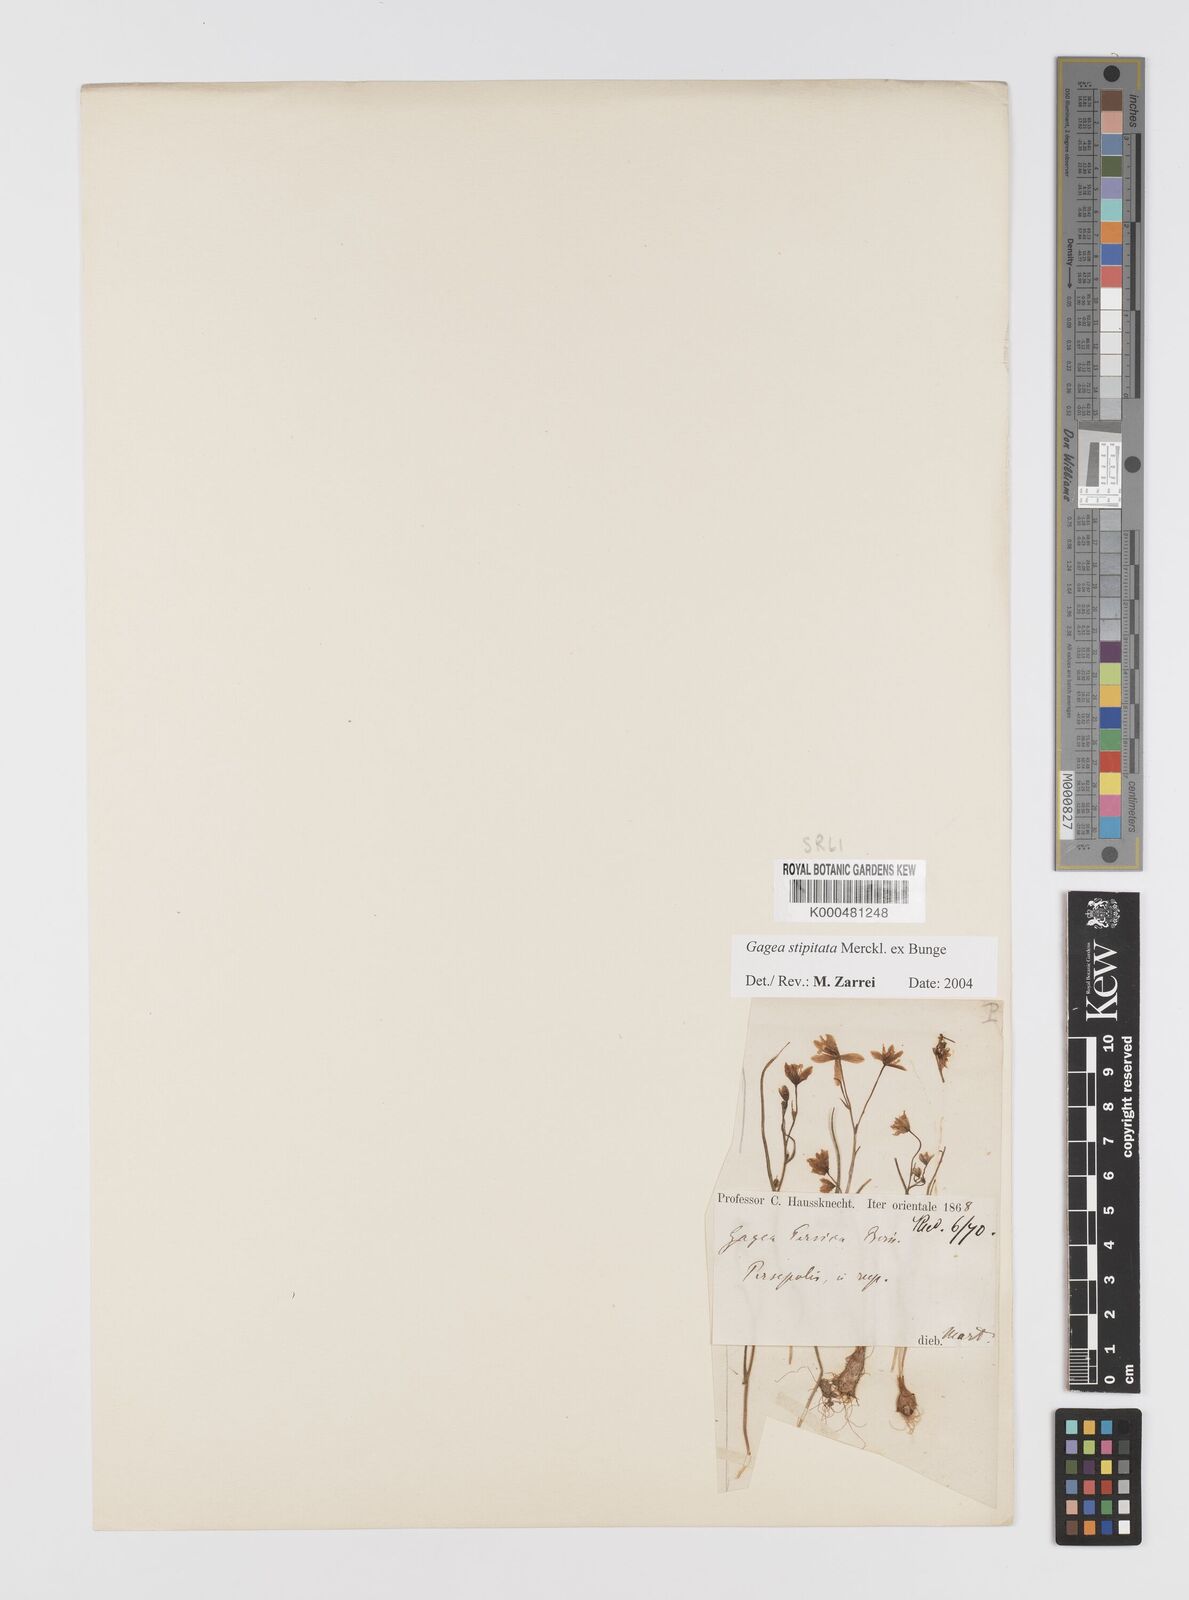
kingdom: Plantae
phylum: Tracheophyta
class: Liliopsida
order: Liliales
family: Liliaceae
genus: Gagea
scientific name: Gagea kunawurensis
